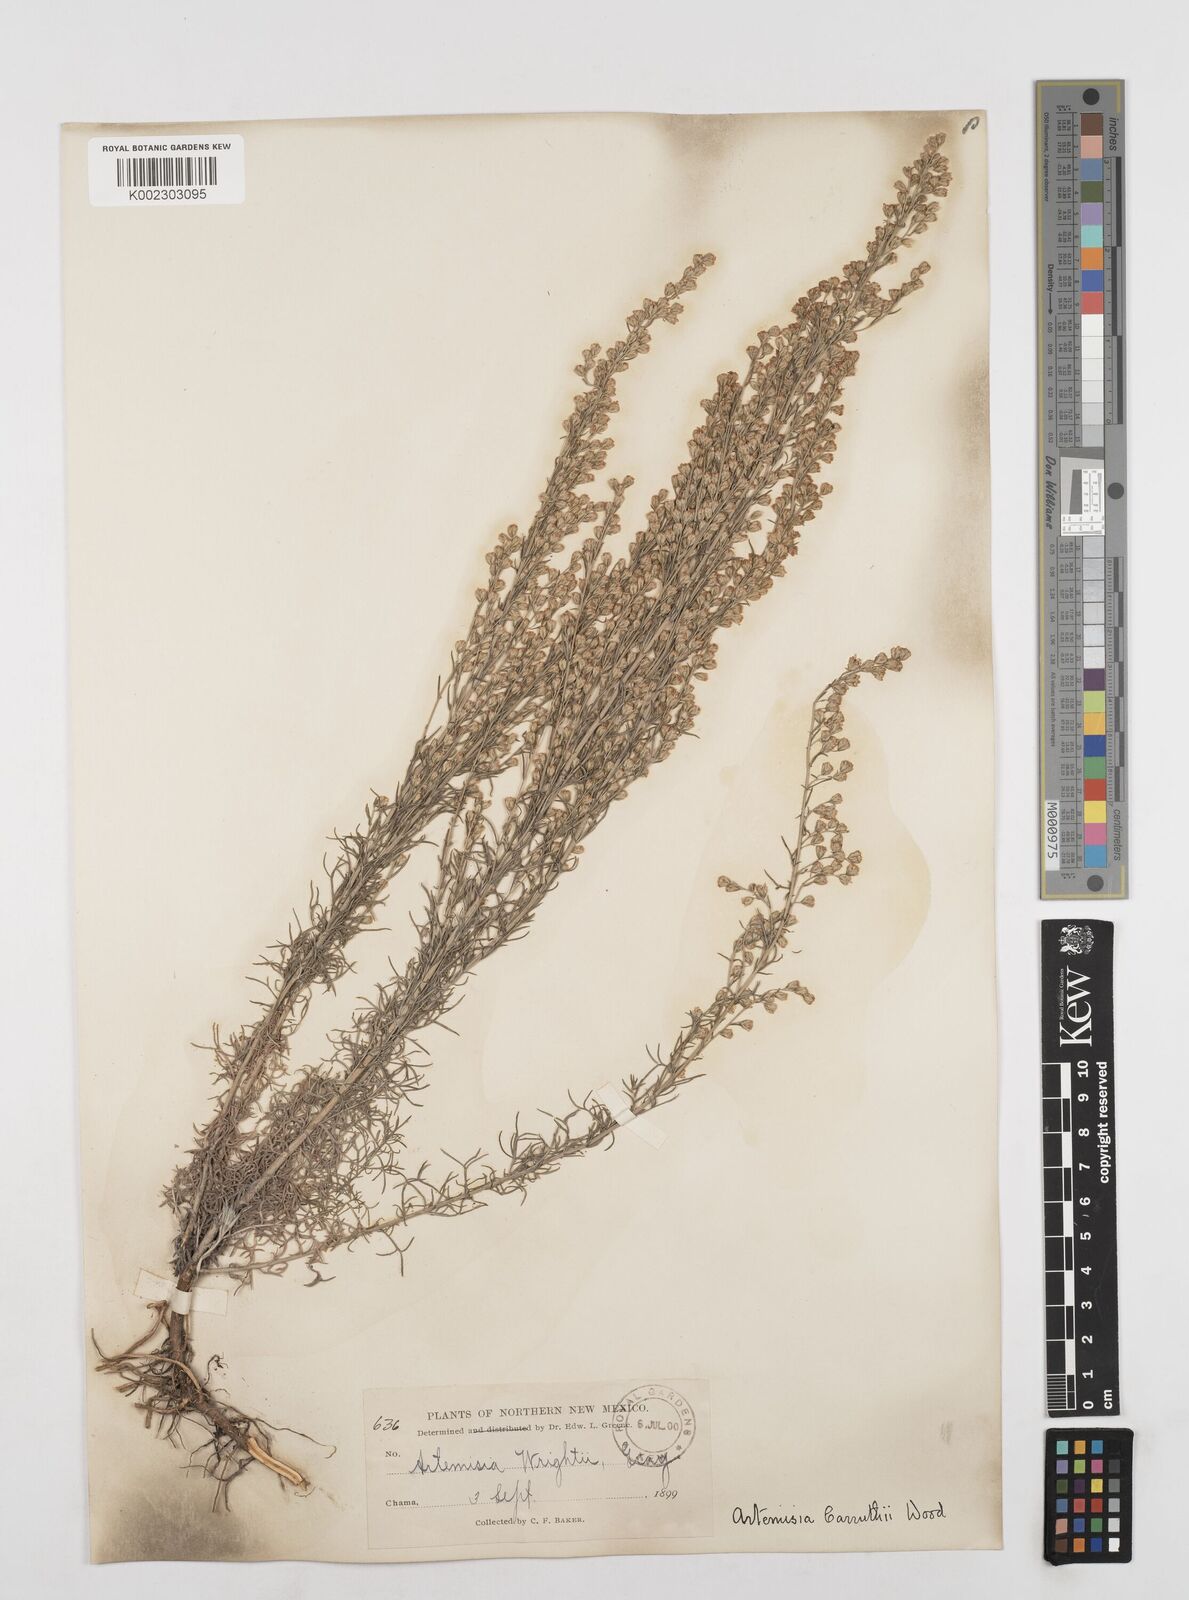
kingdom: Plantae
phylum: Tracheophyta
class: Magnoliopsida
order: Asterales
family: Asteraceae
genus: Artemisia
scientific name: Artemisia carruthii
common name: Carruth wormwood
